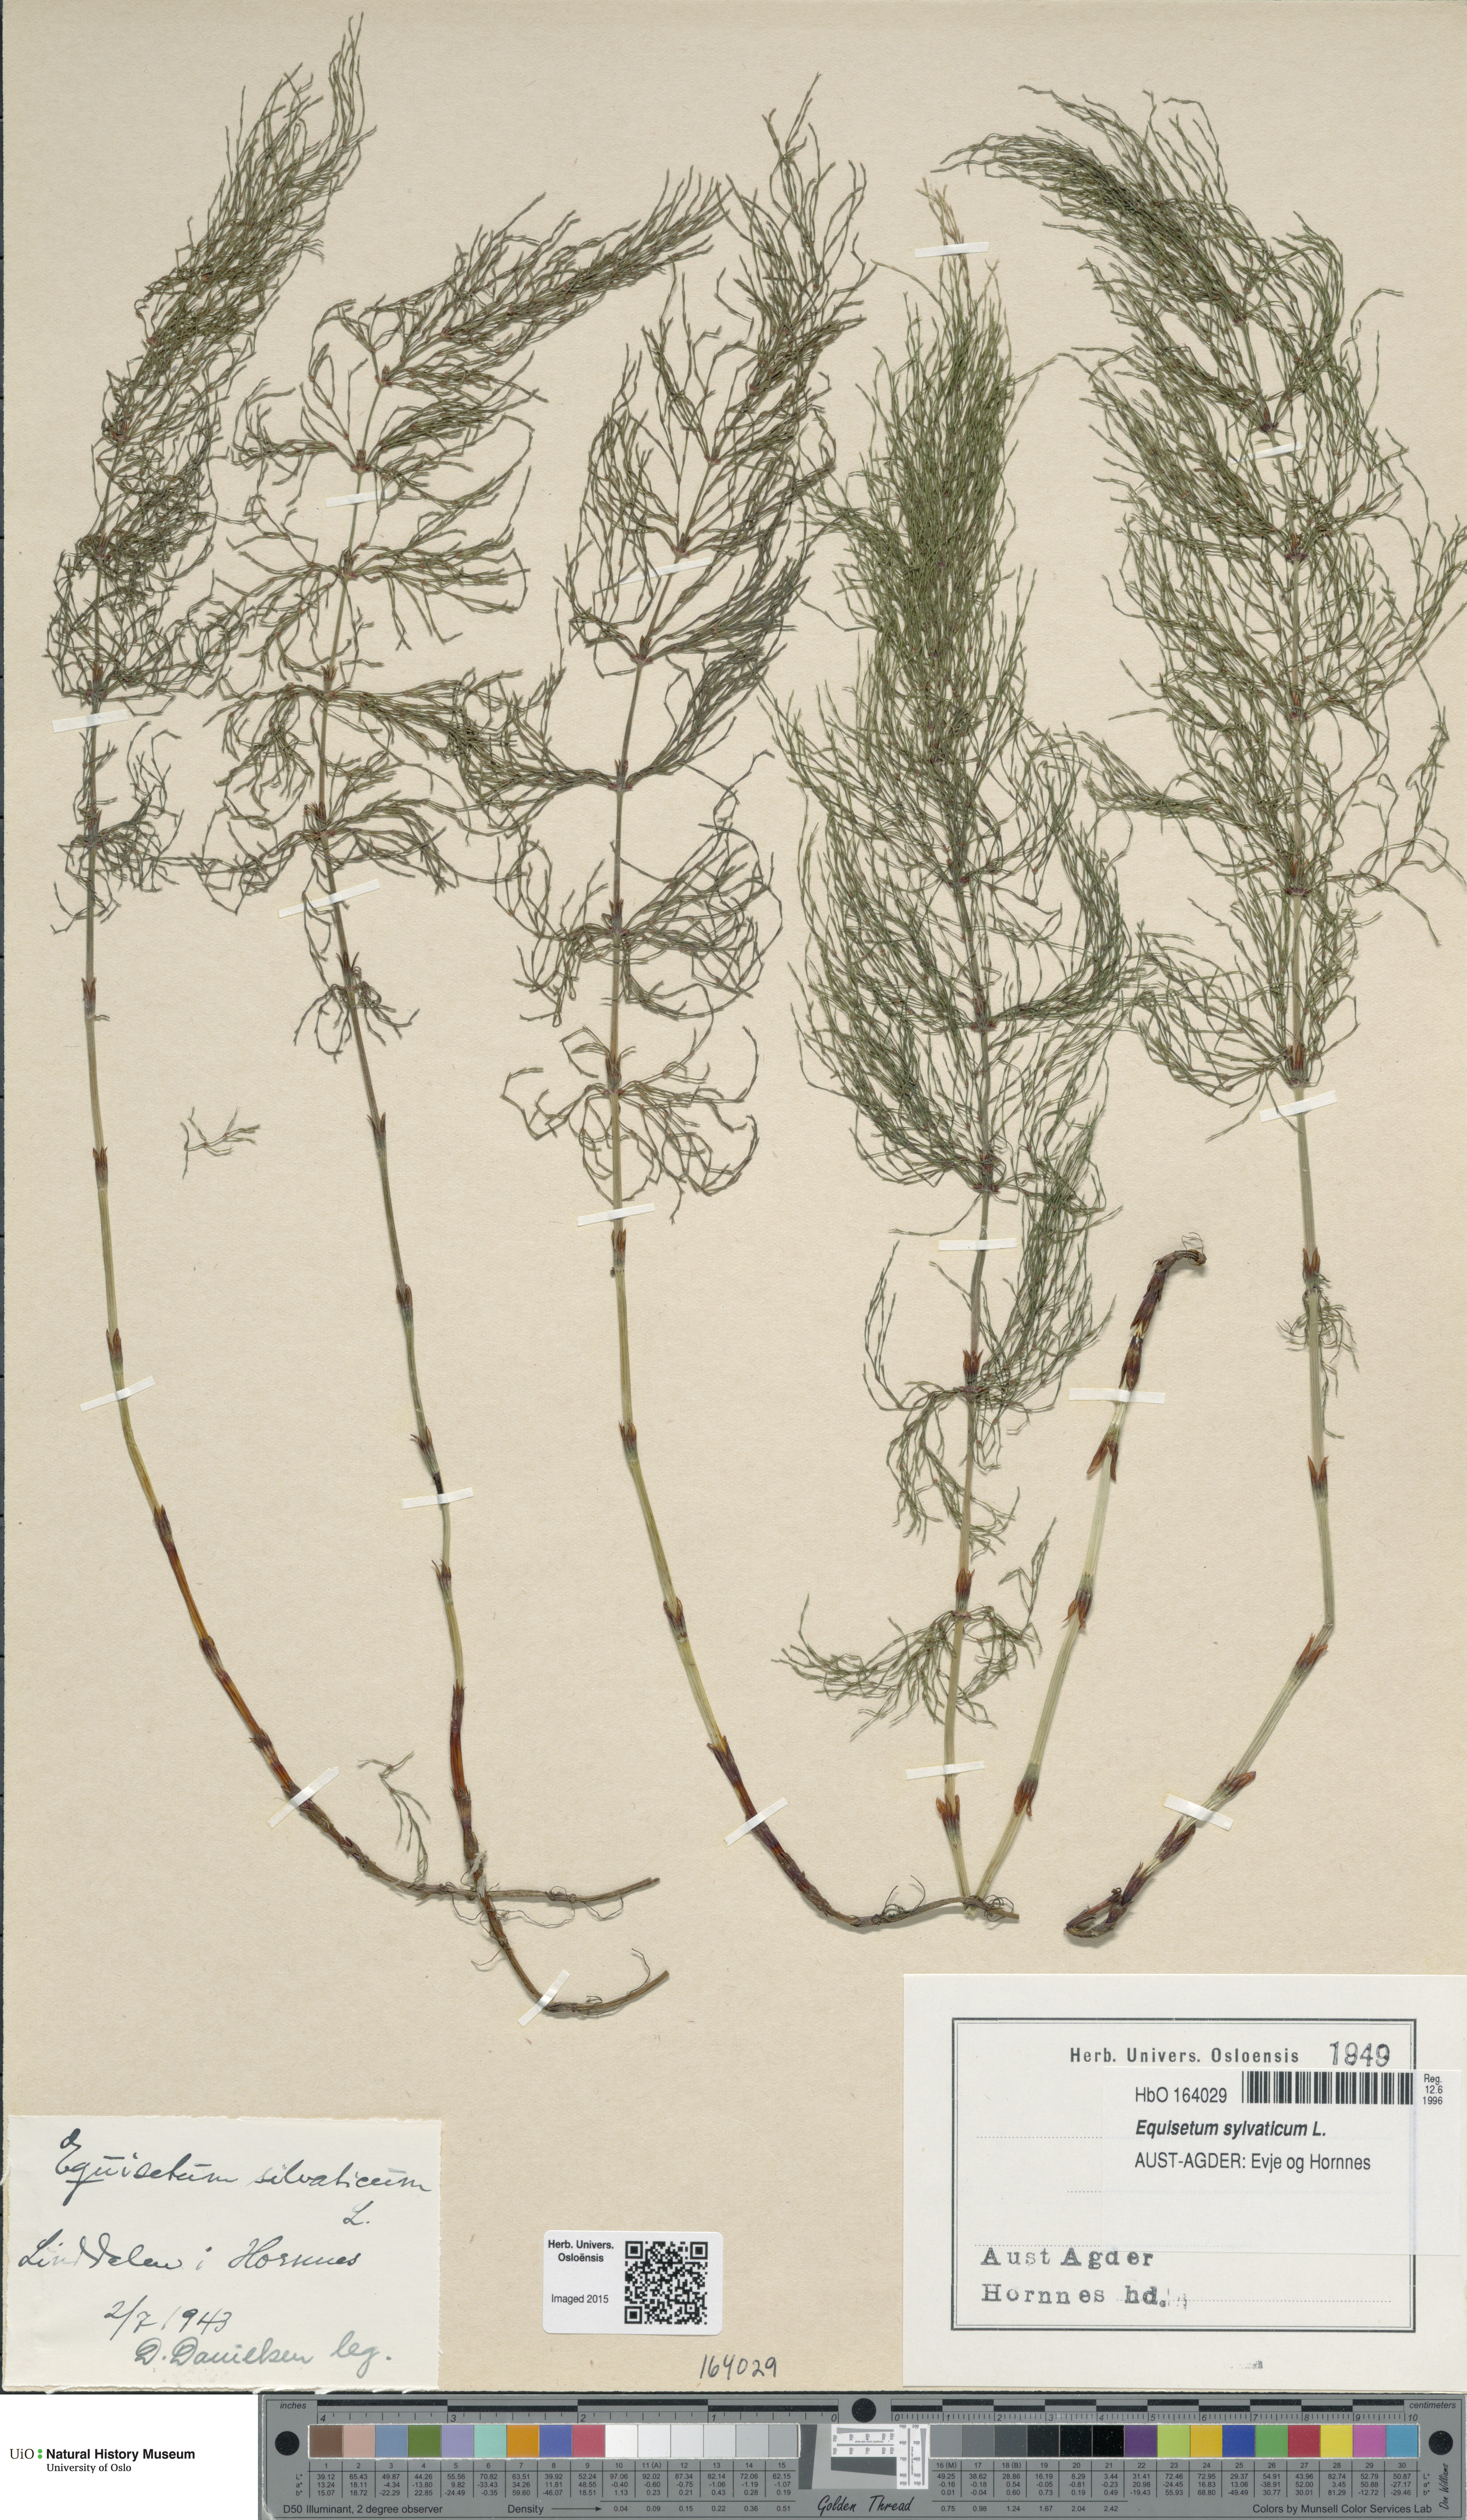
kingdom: Plantae
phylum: Tracheophyta
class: Polypodiopsida
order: Equisetales
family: Equisetaceae
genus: Equisetum
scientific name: Equisetum sylvaticum
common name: Wood horsetail
